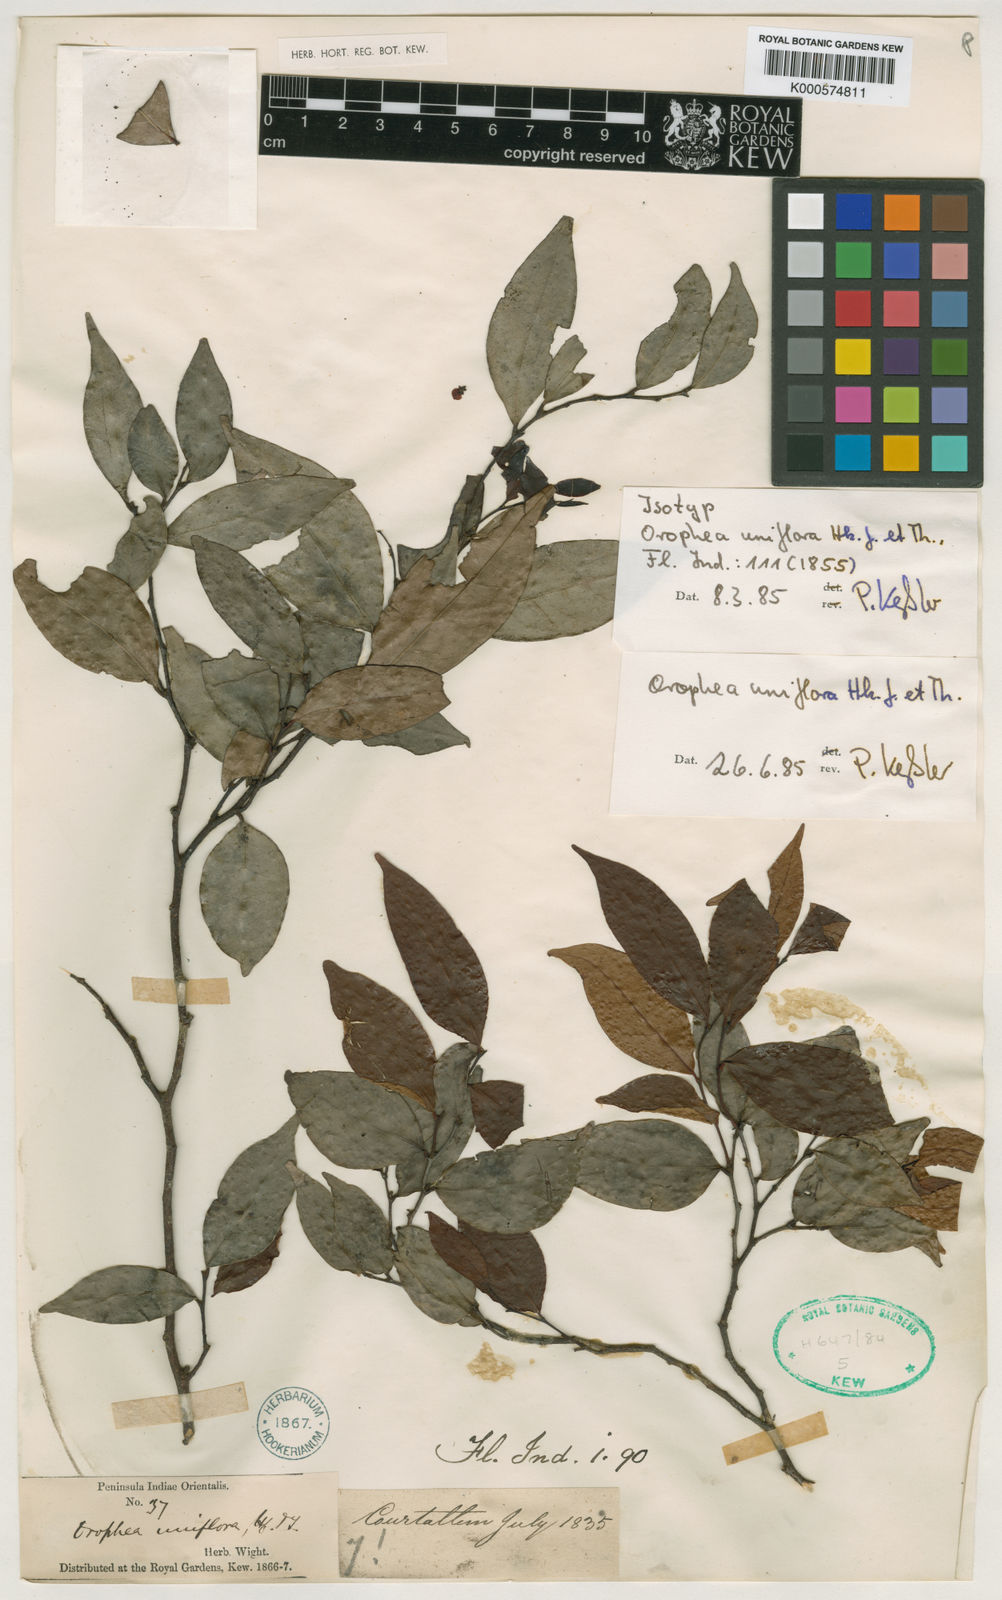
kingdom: Plantae
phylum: Tracheophyta
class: Magnoliopsida
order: Magnoliales
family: Annonaceae
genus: Orophea
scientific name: Orophea uniflora
